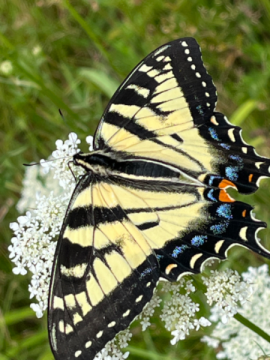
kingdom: Animalia
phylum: Arthropoda
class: Insecta
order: Lepidoptera
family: Papilionidae
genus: Pterourus
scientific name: Pterourus canadensis
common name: Canadian Tiger Swallowtail
